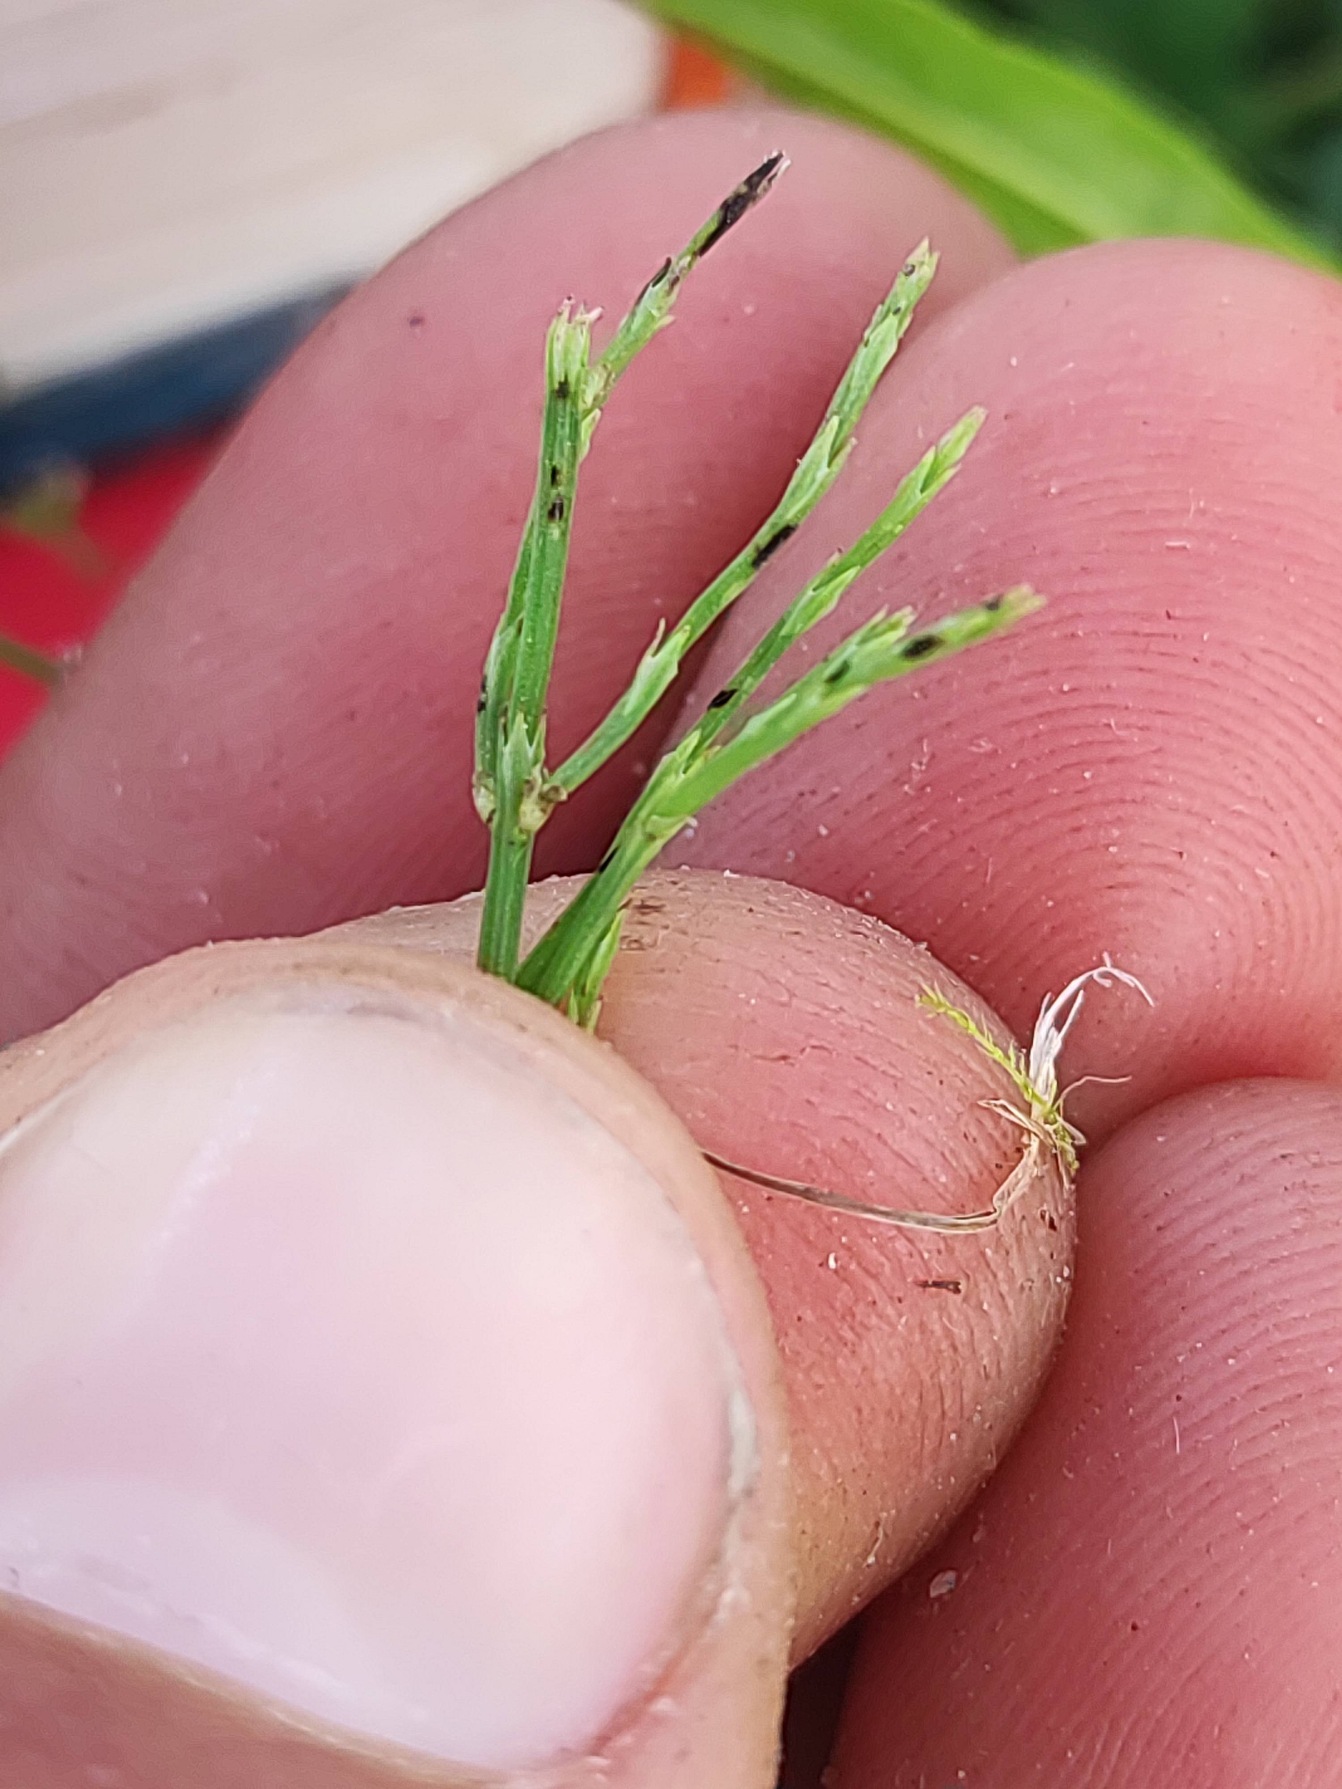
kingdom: Plantae
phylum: Tracheophyta
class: Polypodiopsida
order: Equisetales
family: Equisetaceae
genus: Equisetum
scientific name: Equisetum arvense
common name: Ager-padderok
